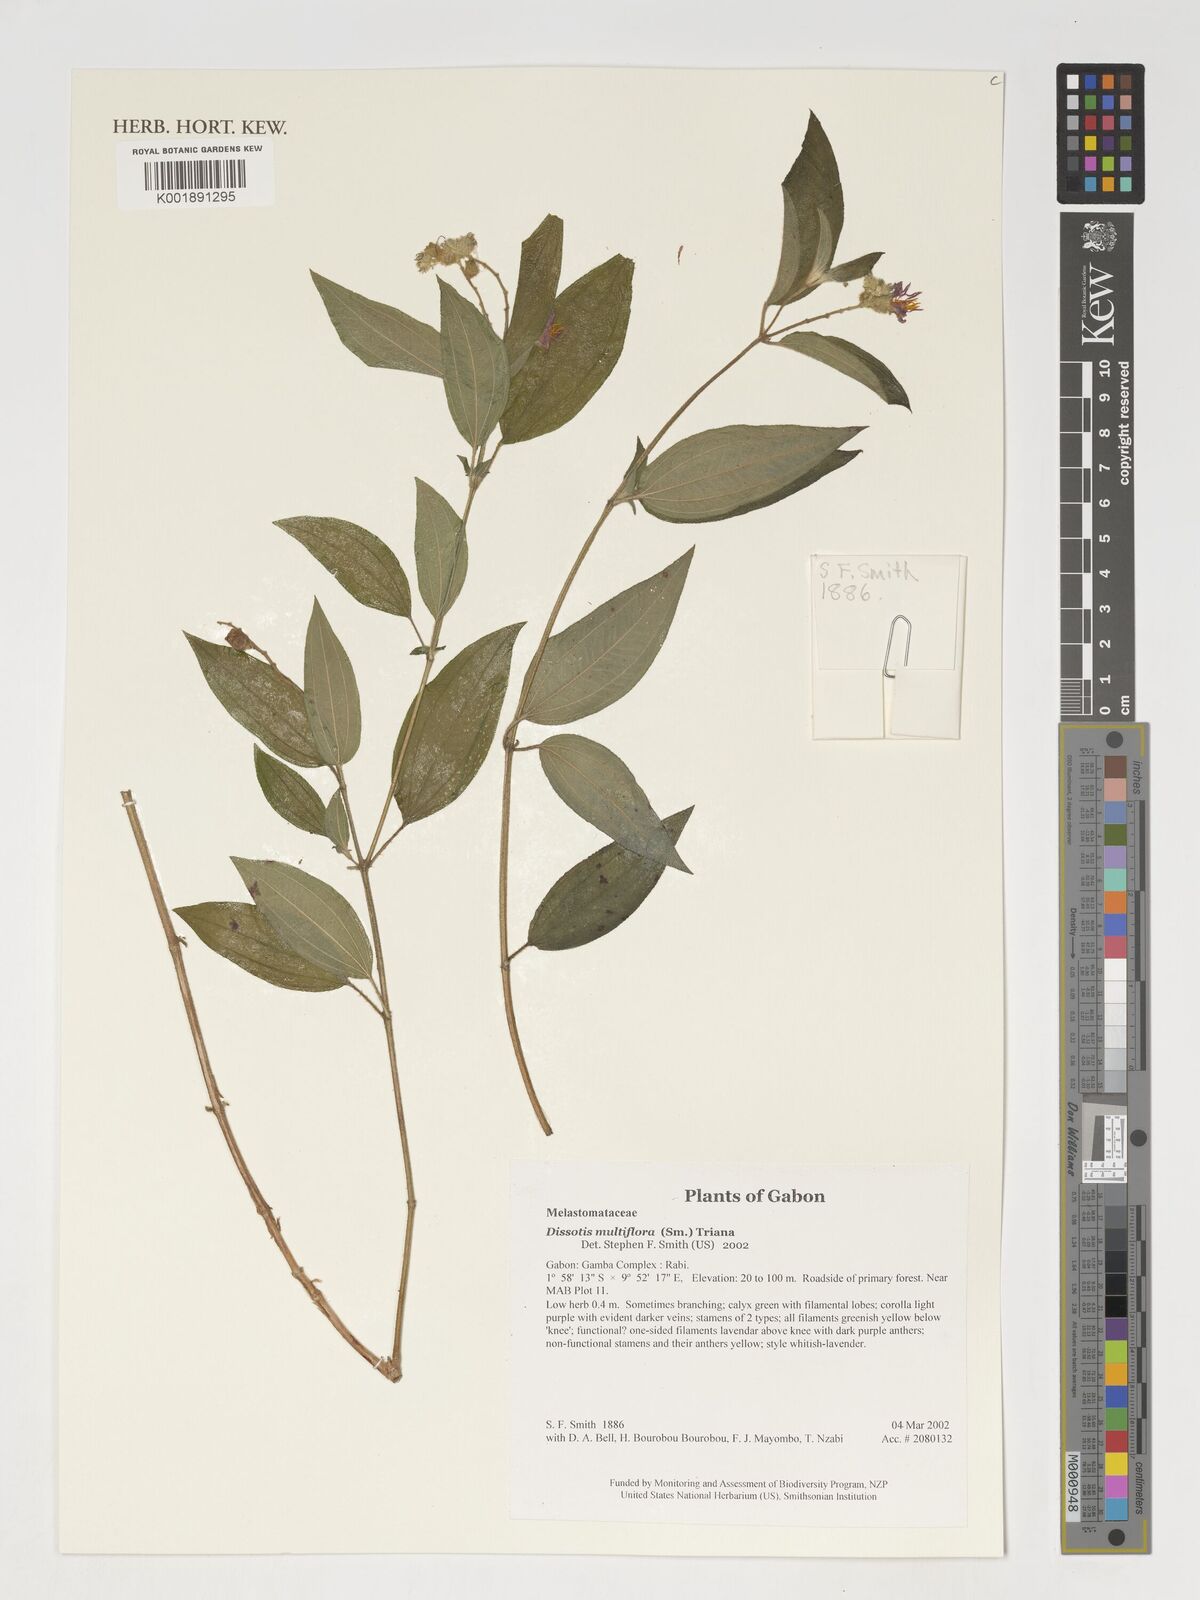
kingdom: Plantae
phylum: Tracheophyta
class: Magnoliopsida
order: Myrtales
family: Melastomataceae
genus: Dupineta
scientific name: Dupineta multiflora
